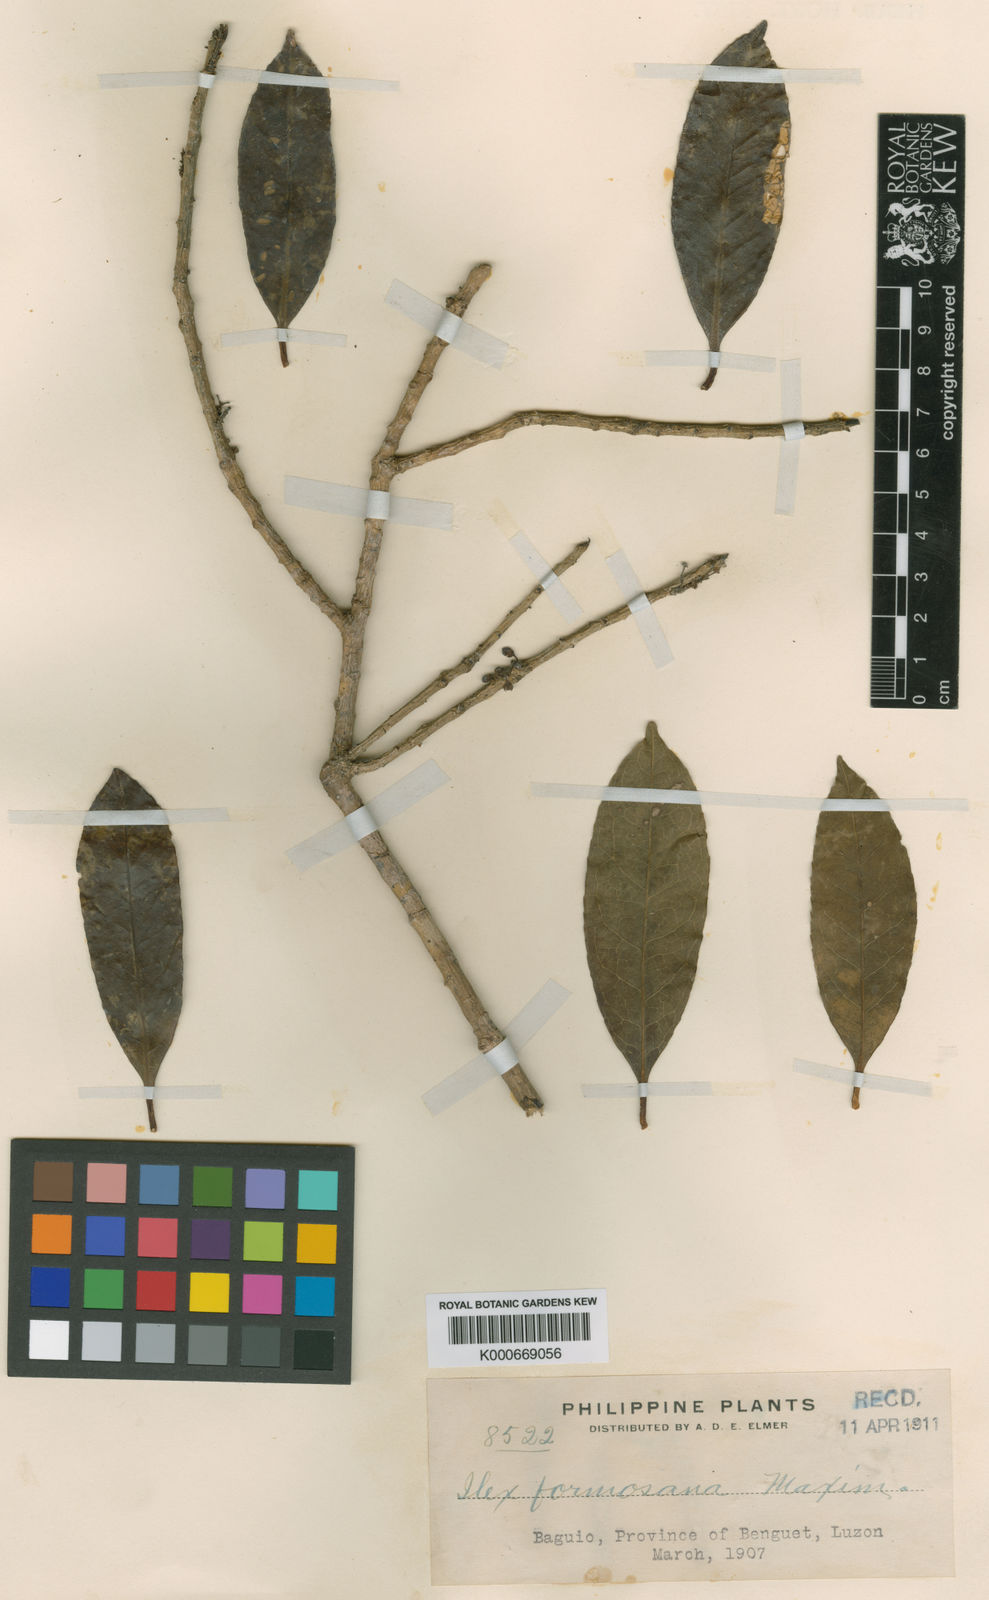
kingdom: Plantae
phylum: Tracheophyta
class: Magnoliopsida
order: Aquifoliales
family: Aquifoliaceae
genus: Ilex
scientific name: Ilex warburgii
